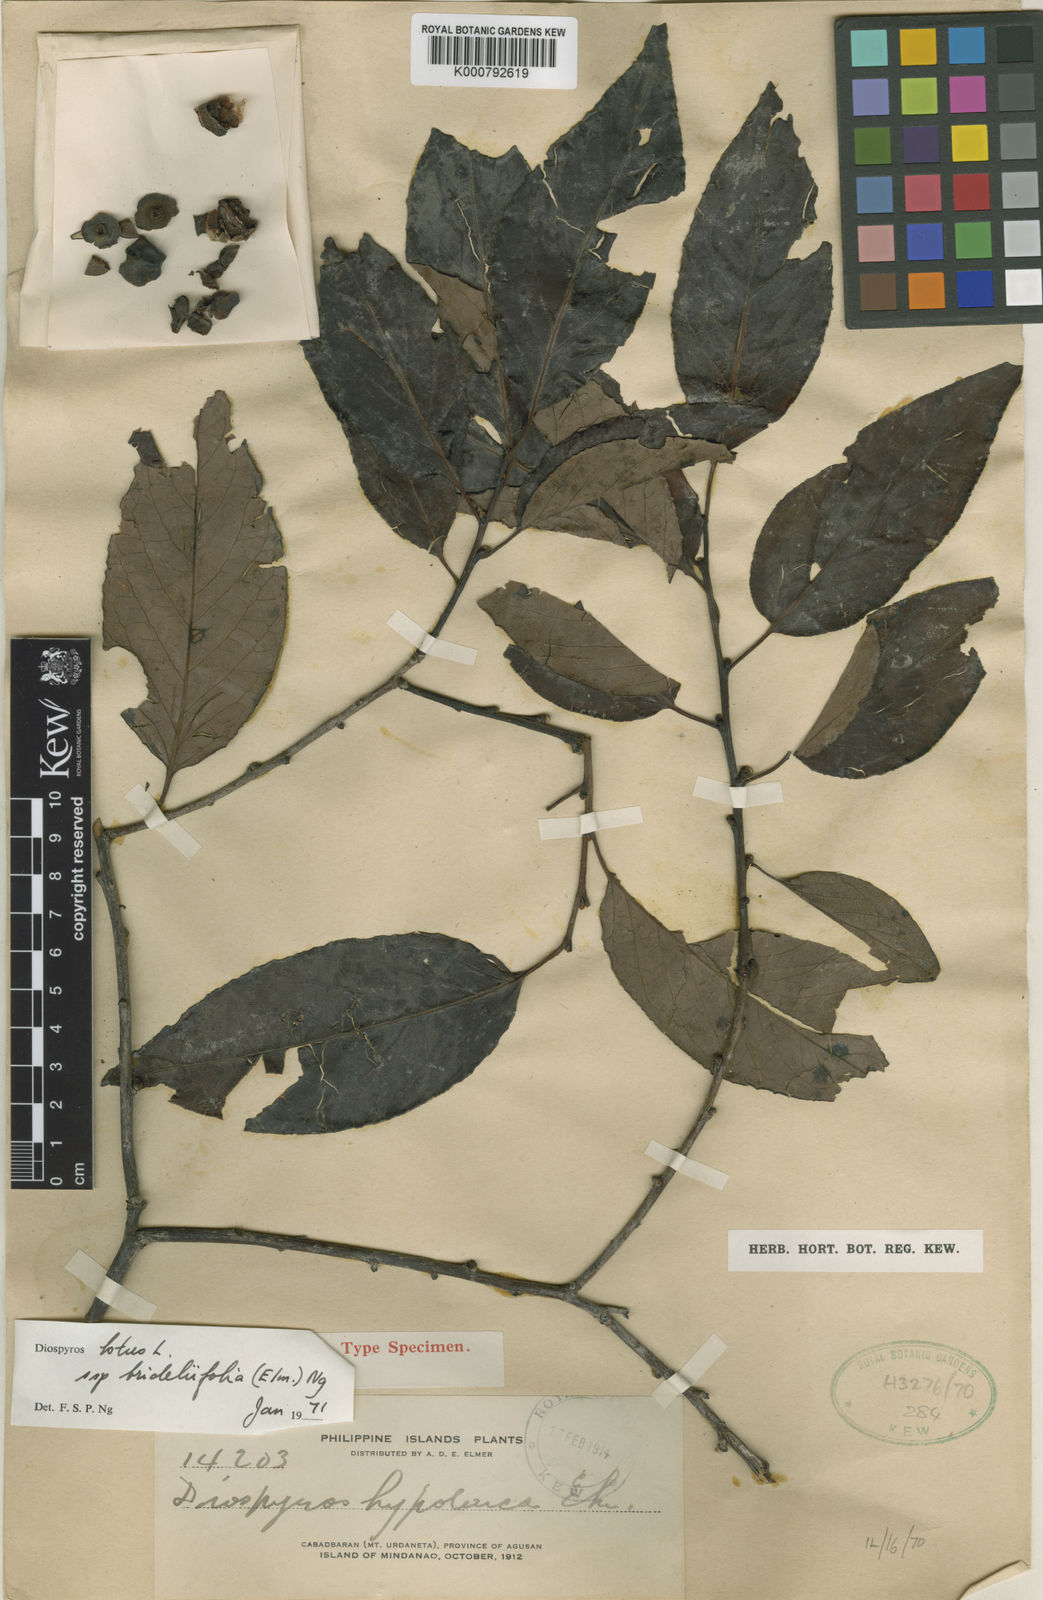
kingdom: Plantae
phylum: Tracheophyta
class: Magnoliopsida
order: Ericales
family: Ebenaceae
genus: Diospyros
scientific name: Diospyros brideliifolia
